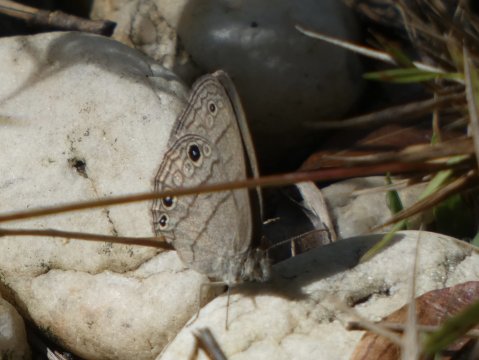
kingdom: Animalia
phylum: Arthropoda
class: Insecta
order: Lepidoptera
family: Nymphalidae
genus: Hermeuptychia
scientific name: Hermeuptychia hermes
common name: Carolina Satyr
